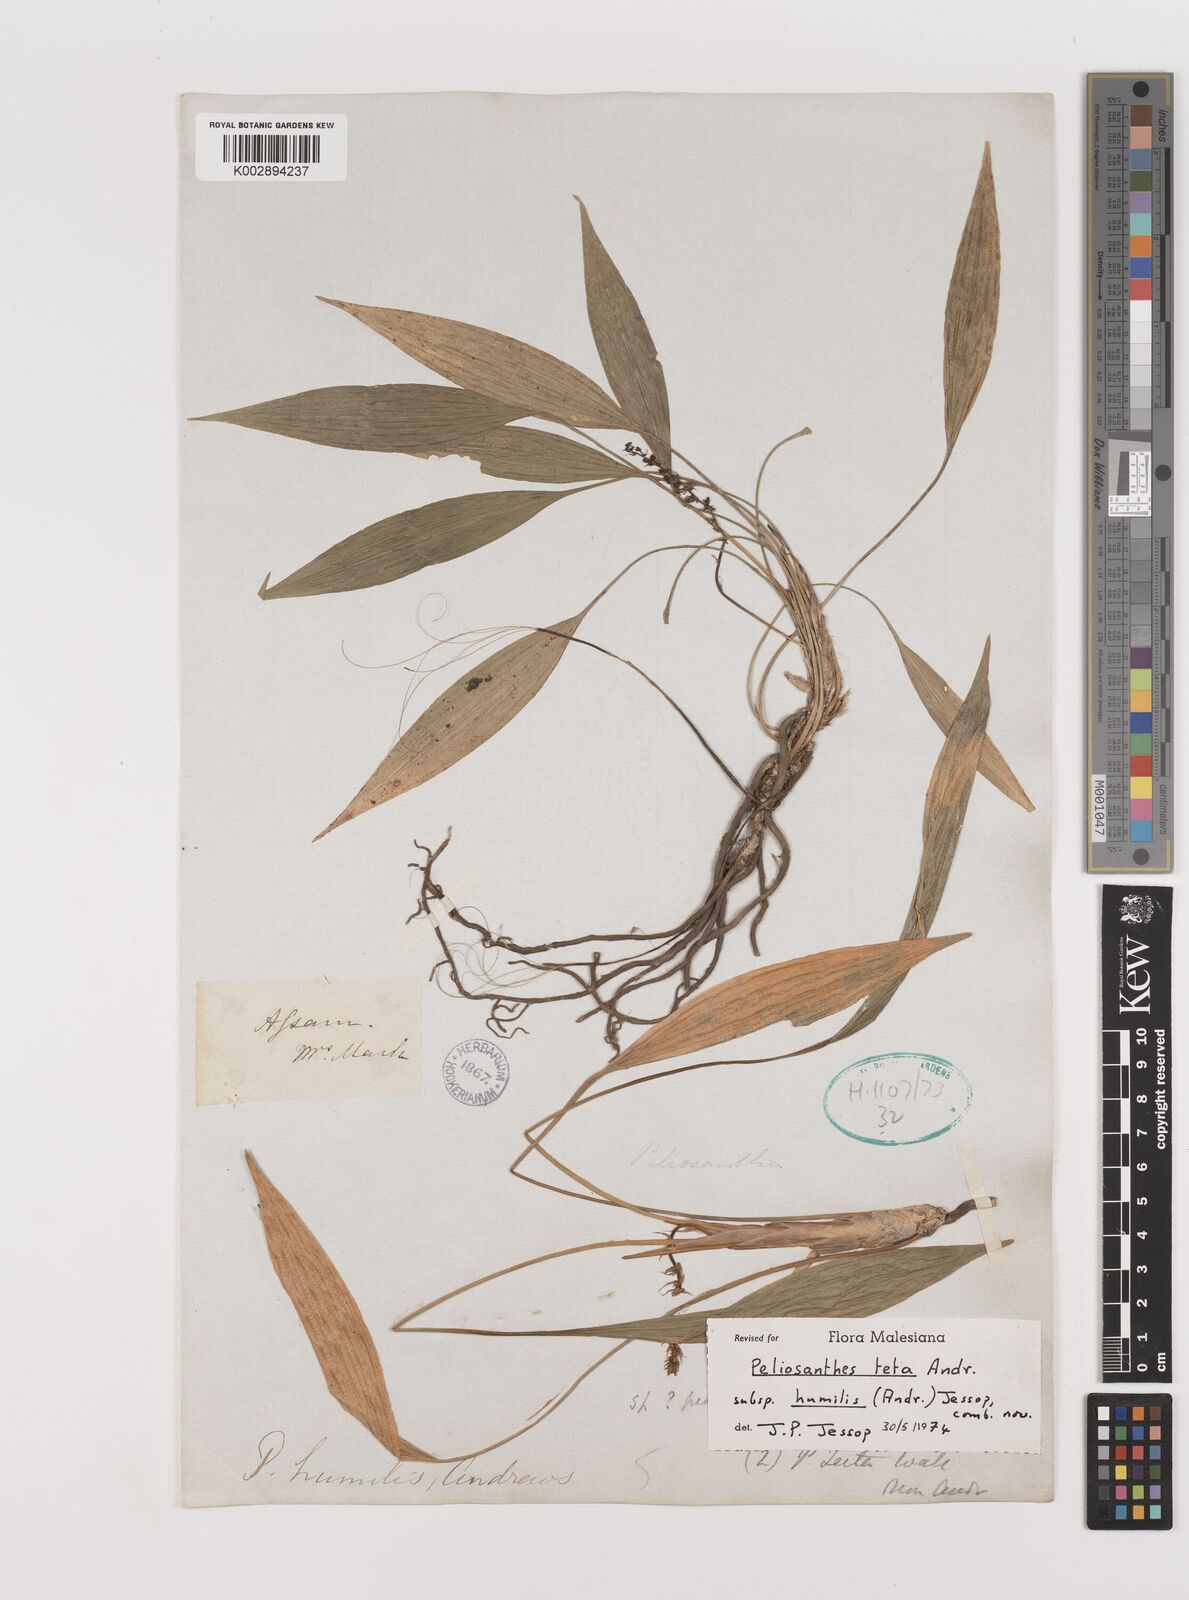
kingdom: Plantae
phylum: Tracheophyta
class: Liliopsida
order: Asparagales
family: Asparagaceae
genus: Peliosanthes
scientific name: Peliosanthes teta
